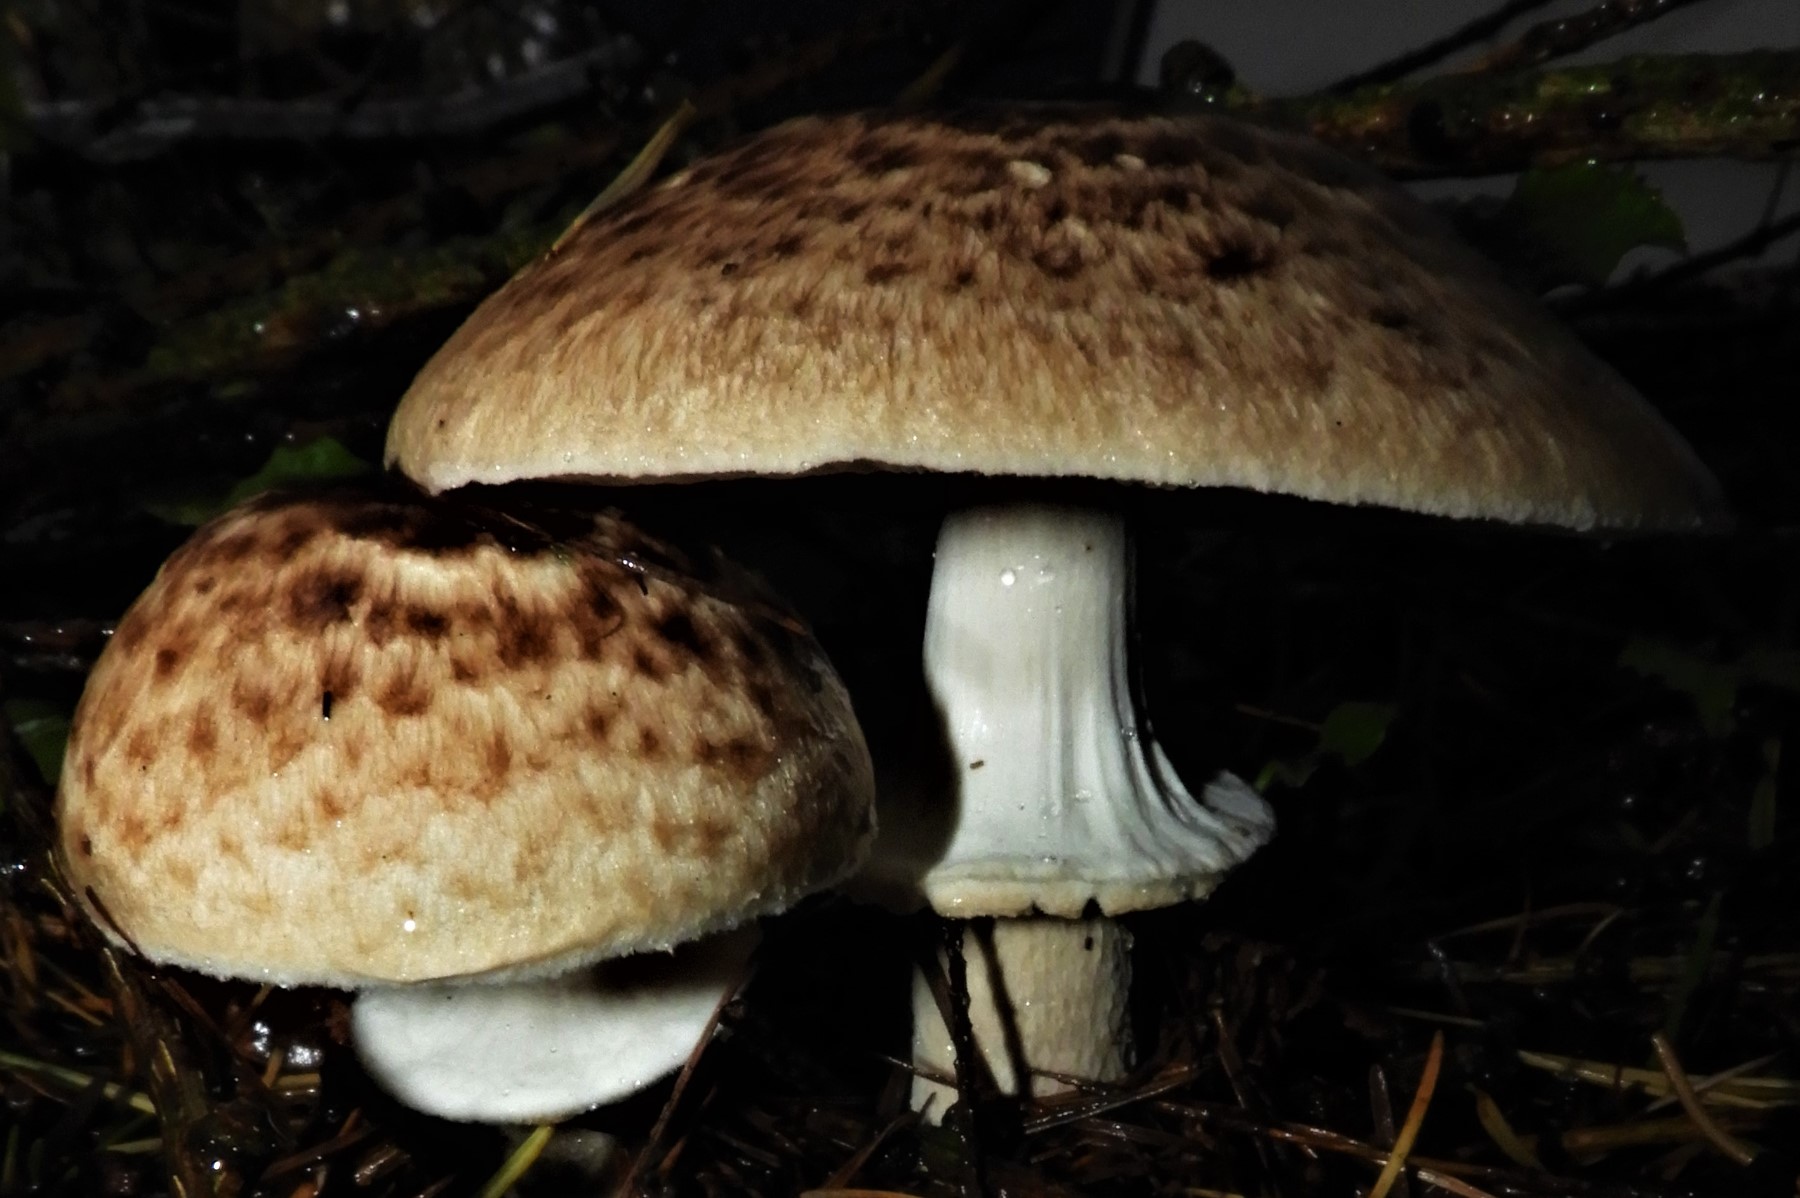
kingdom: Fungi
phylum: Basidiomycota
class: Agaricomycetes
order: Agaricales
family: Agaricaceae
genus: Agaricus
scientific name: Agaricus impudicus
